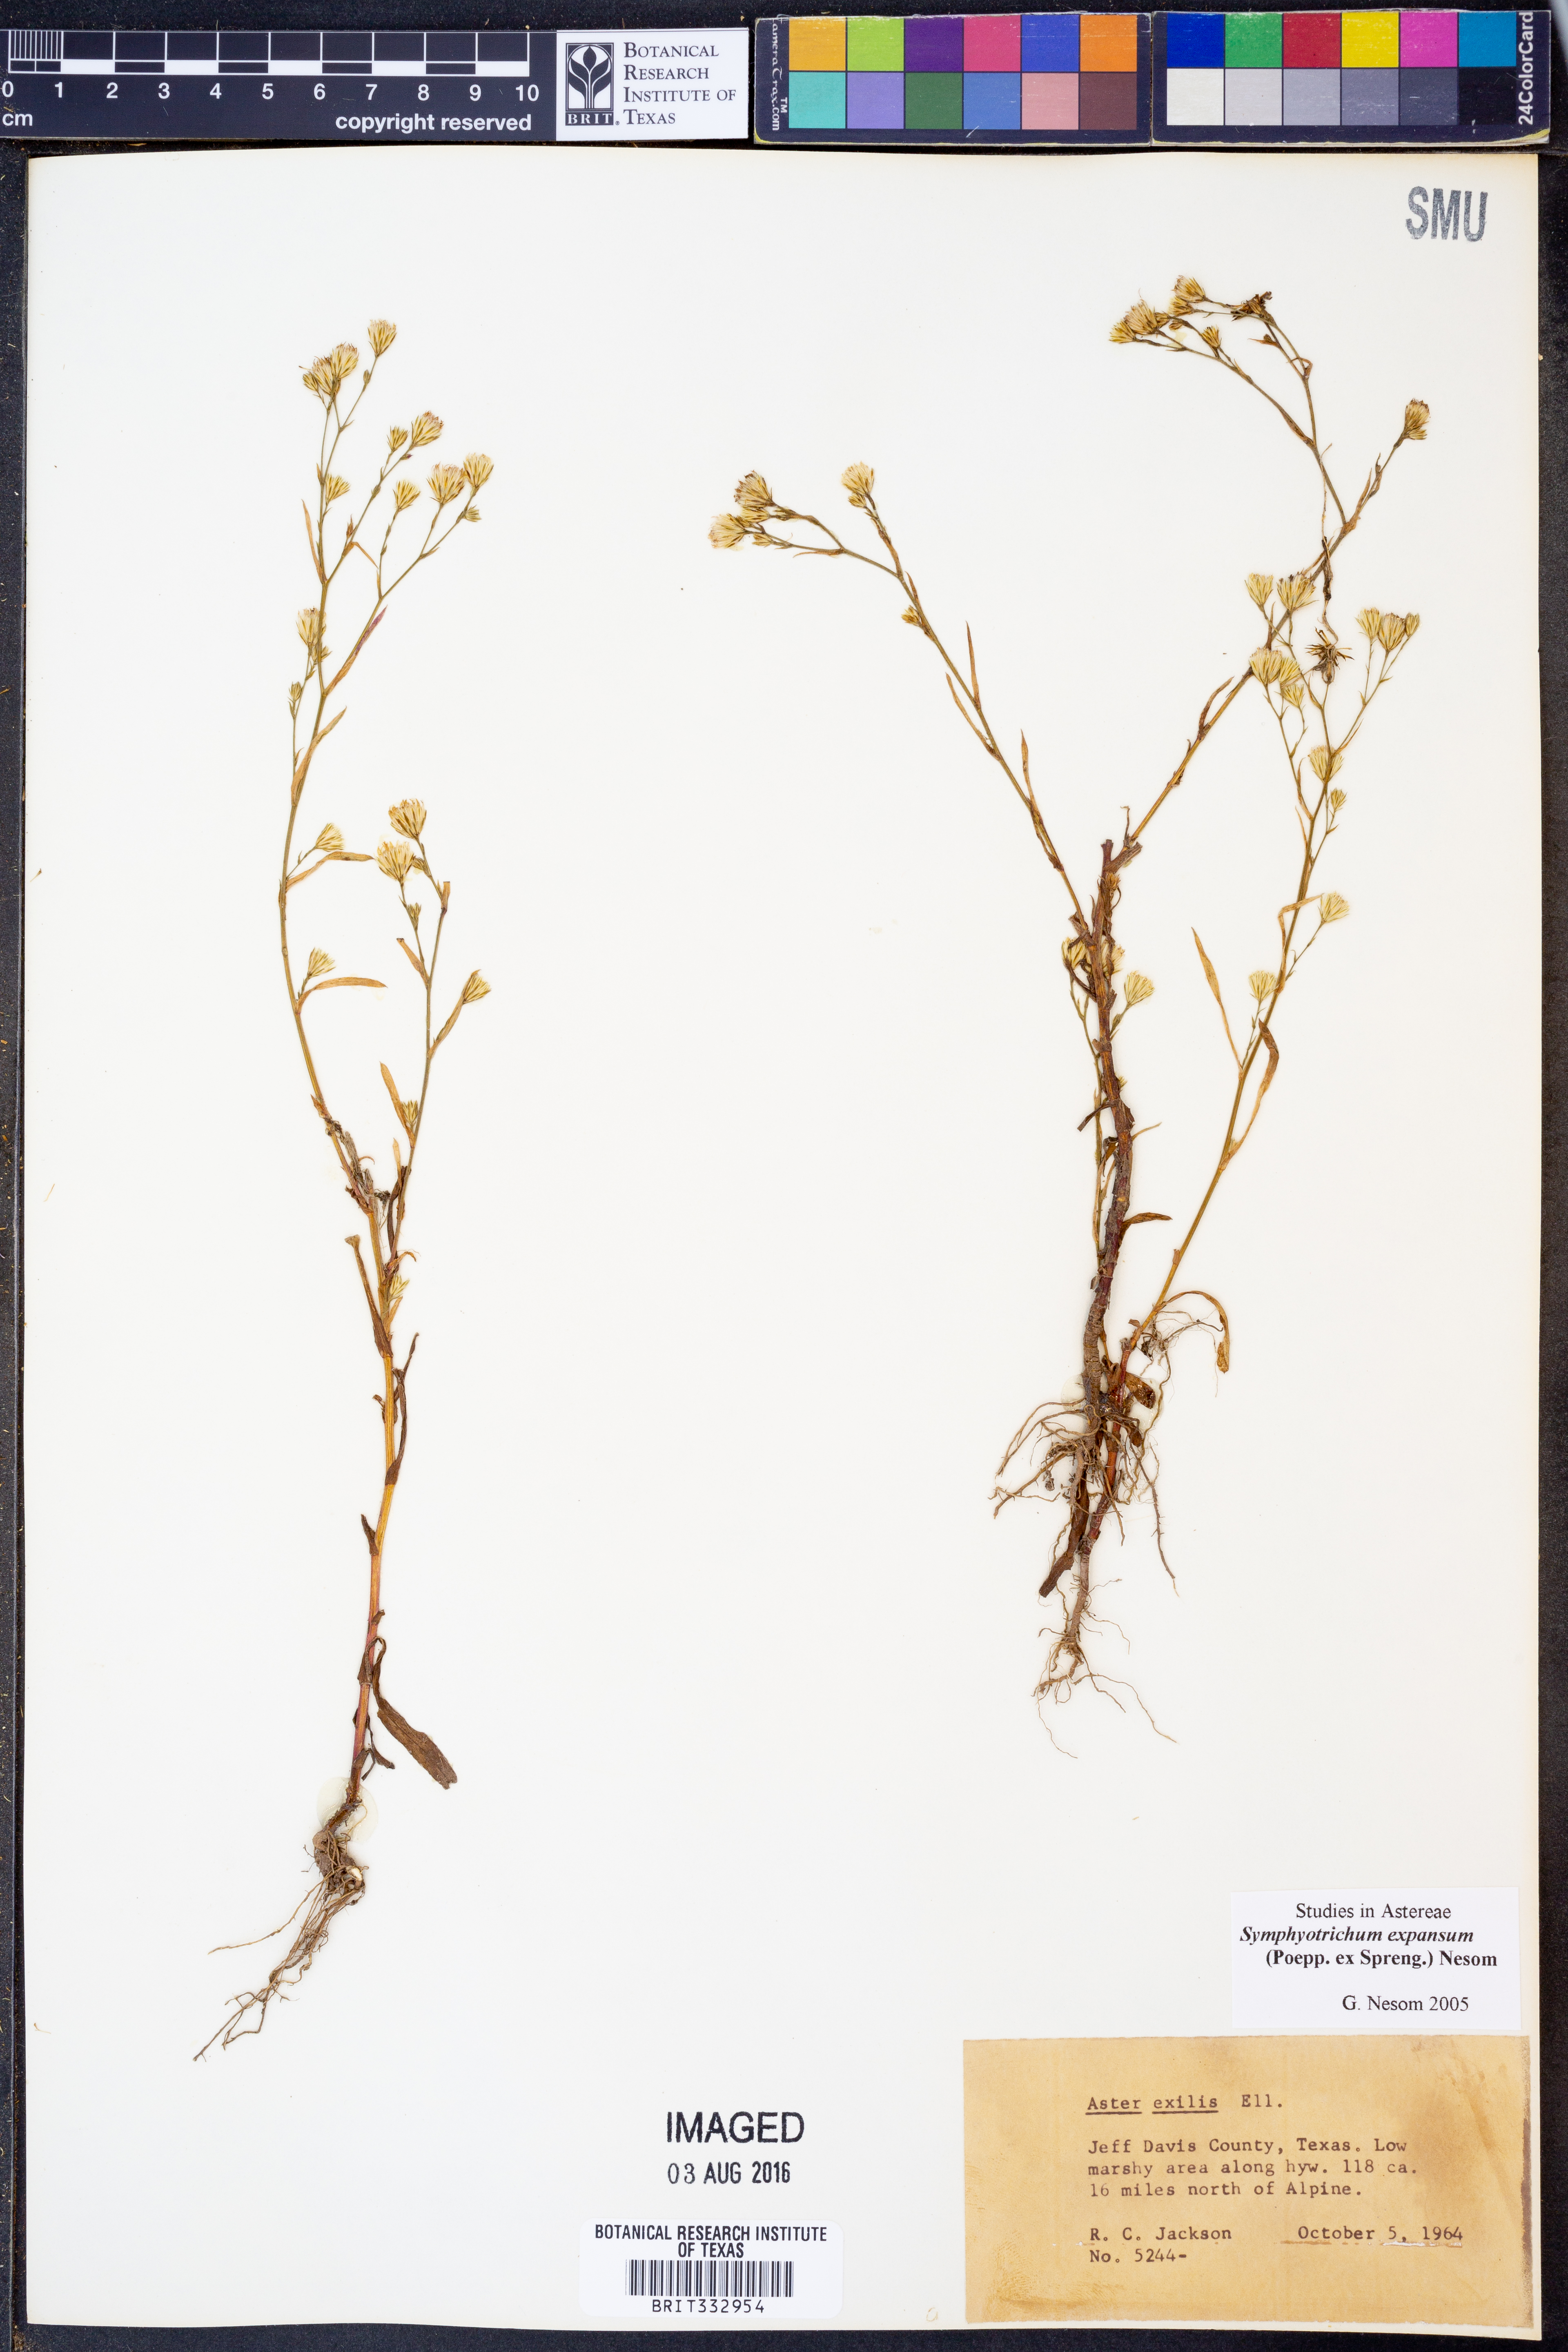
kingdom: Plantae
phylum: Tracheophyta
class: Magnoliopsida
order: Asterales
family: Asteraceae
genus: Symphyotrichum
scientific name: Symphyotrichum expansum
